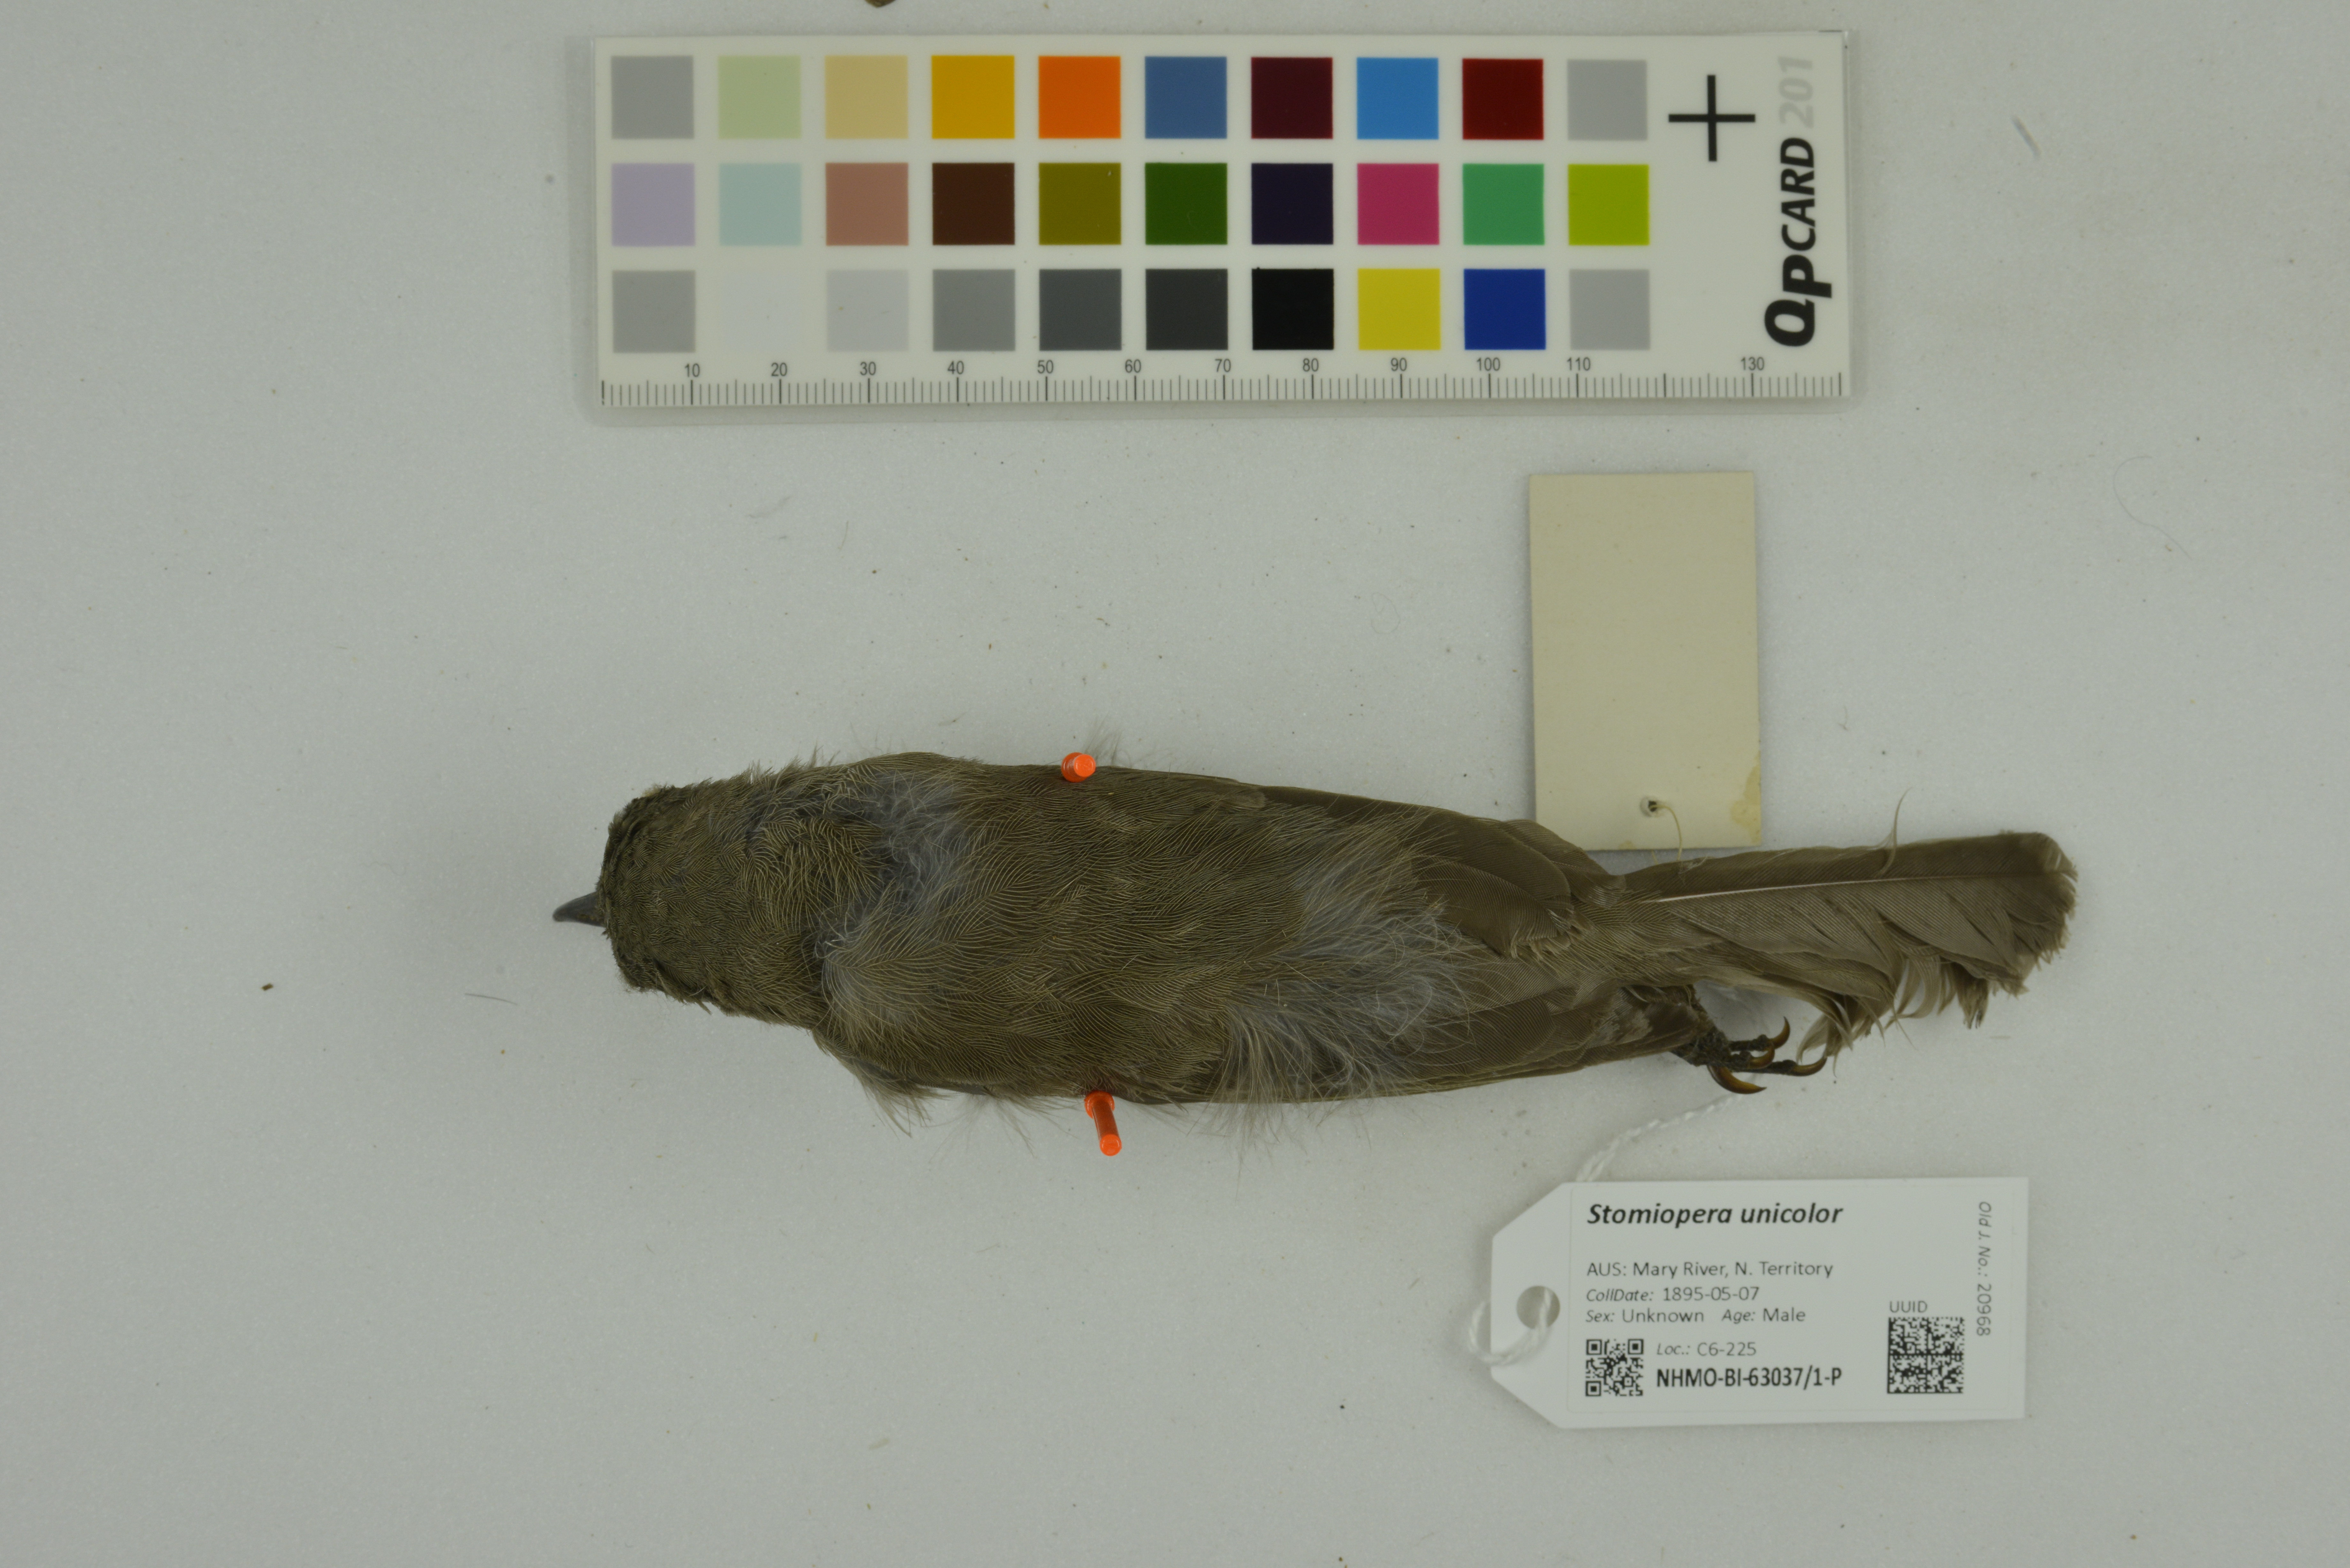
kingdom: Animalia
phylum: Chordata
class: Aves
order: Passeriformes
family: Meliphagidae
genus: Stomiopera
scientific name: Stomiopera unicolor
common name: White-gaped honeyeater
